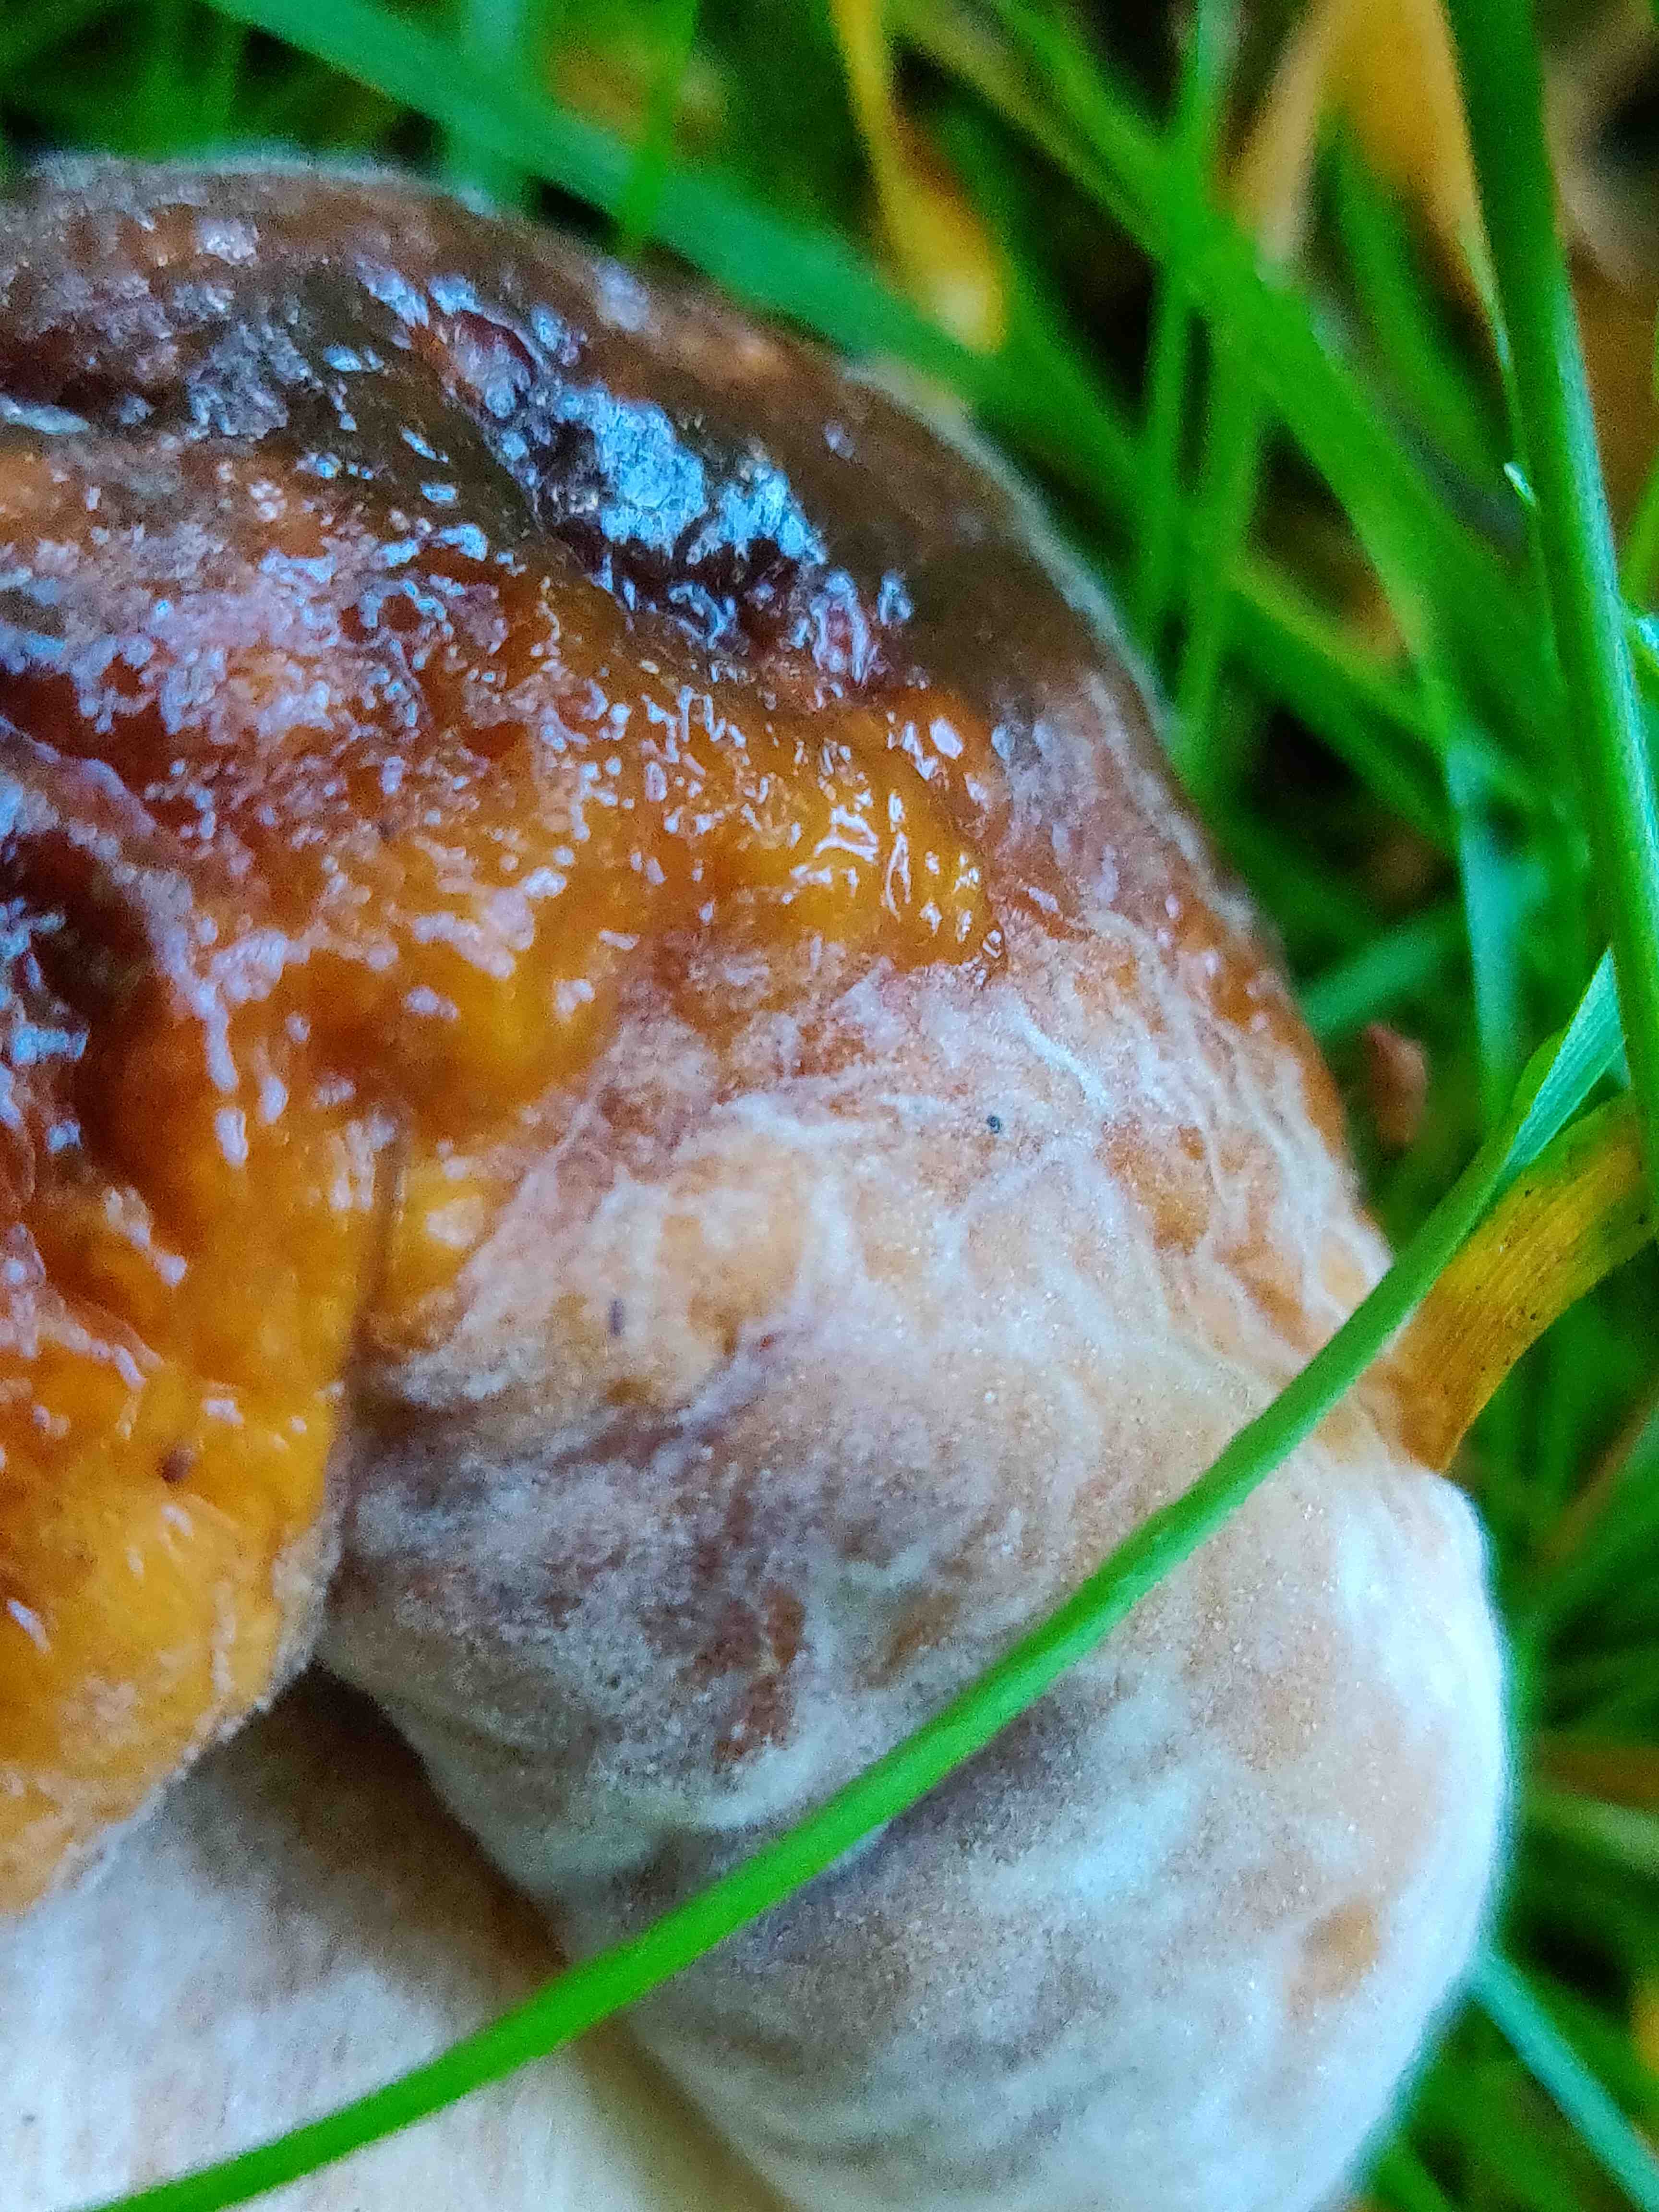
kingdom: Fungi
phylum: Ascomycota
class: Sordariomycetes
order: Hypocreales
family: Hypocreaceae
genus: Hypomyces
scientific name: Hypomyces chrysospermus
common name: gulskimmel-snylteskorpe
